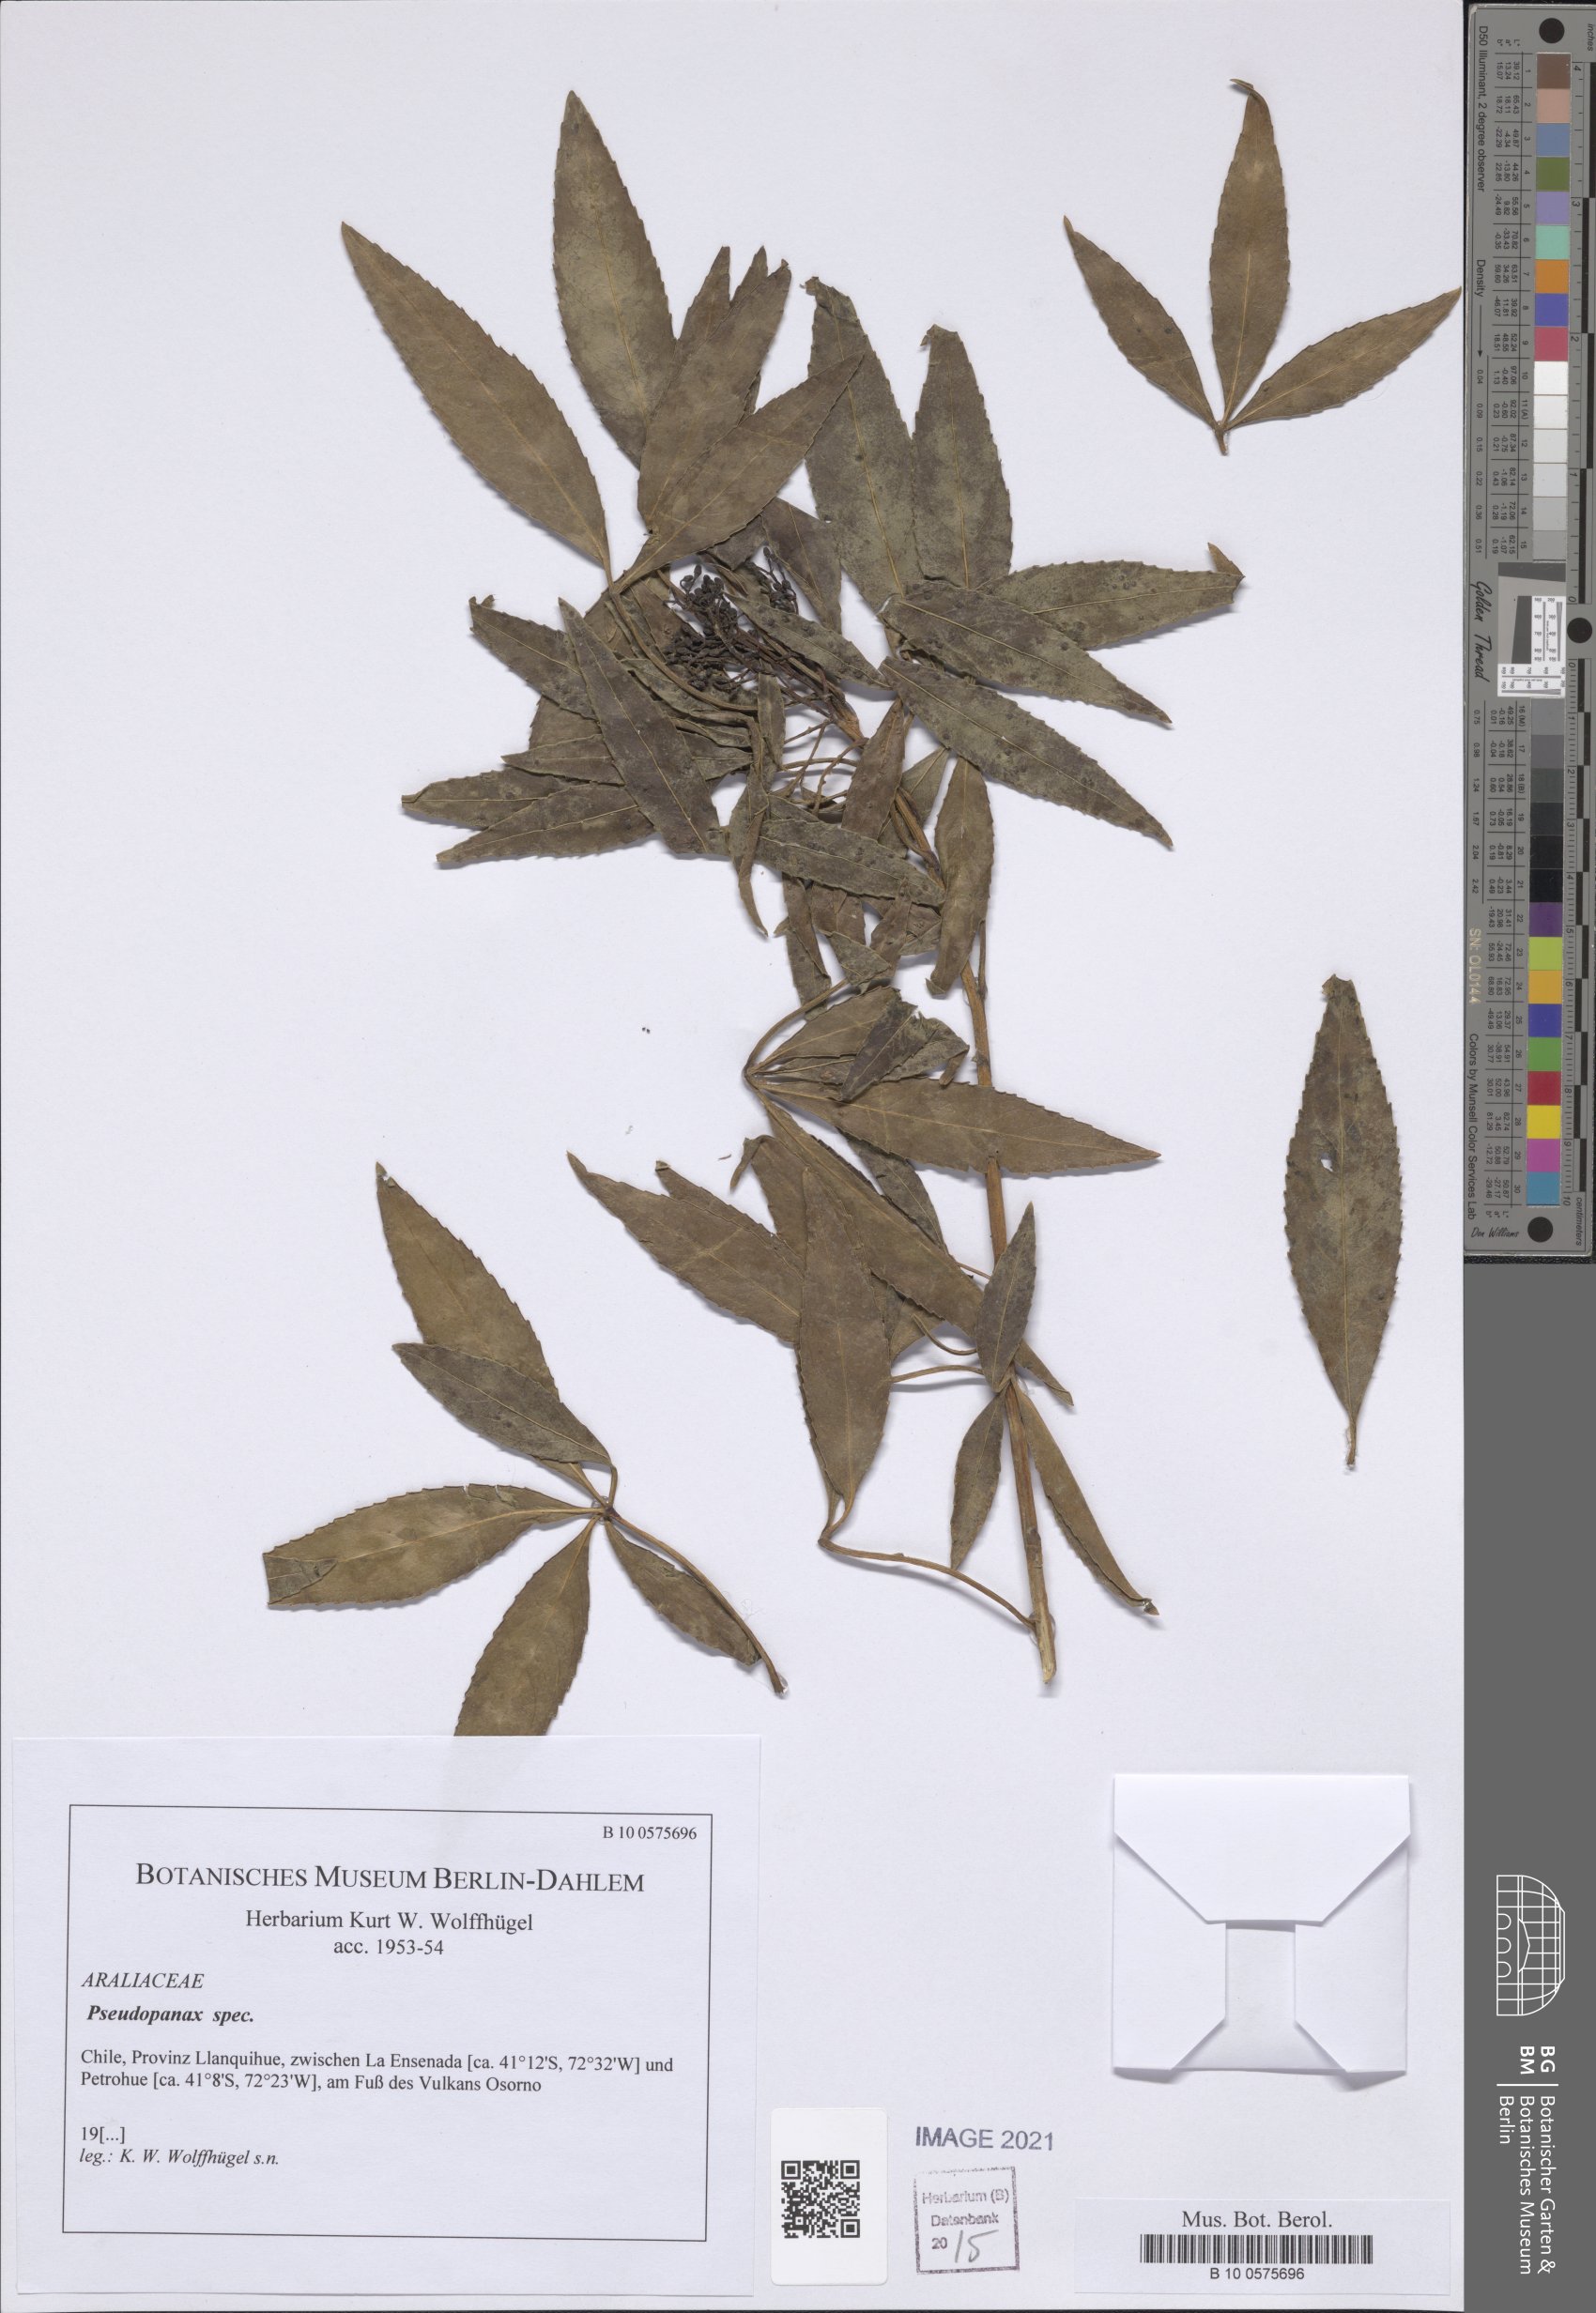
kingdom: Plantae
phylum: Tracheophyta
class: Magnoliopsida
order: Apiales
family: Araliaceae
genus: Pseudopanax
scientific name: Pseudopanax
